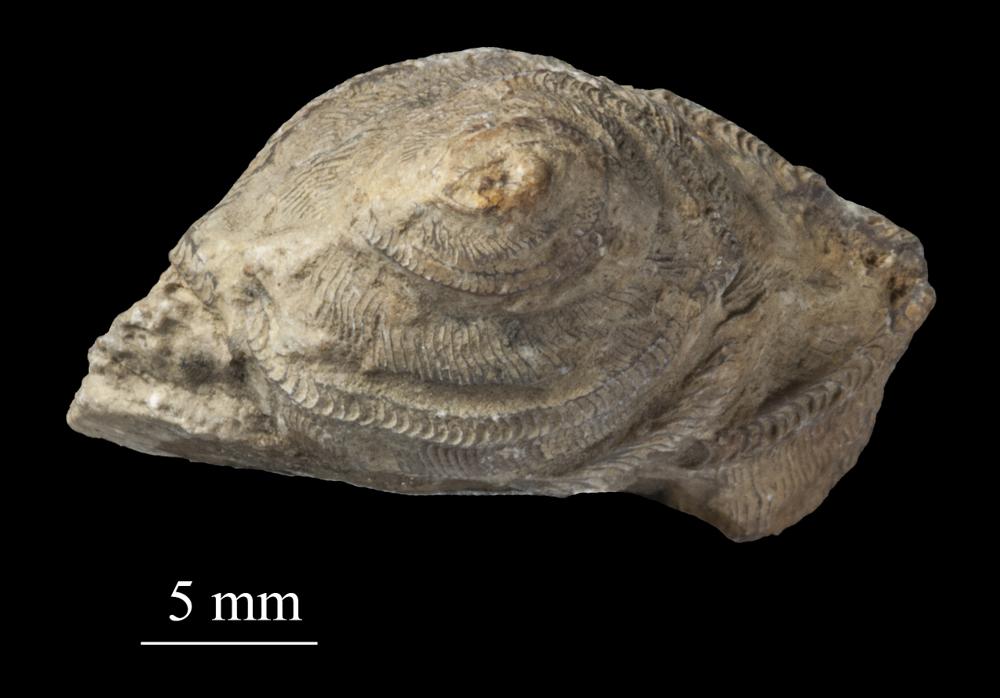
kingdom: Animalia
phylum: Mollusca
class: Gastropoda
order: Pleurotomariida
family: Phanerotrematidae
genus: Brachytomaria
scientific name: Brachytomaria nodulosa
